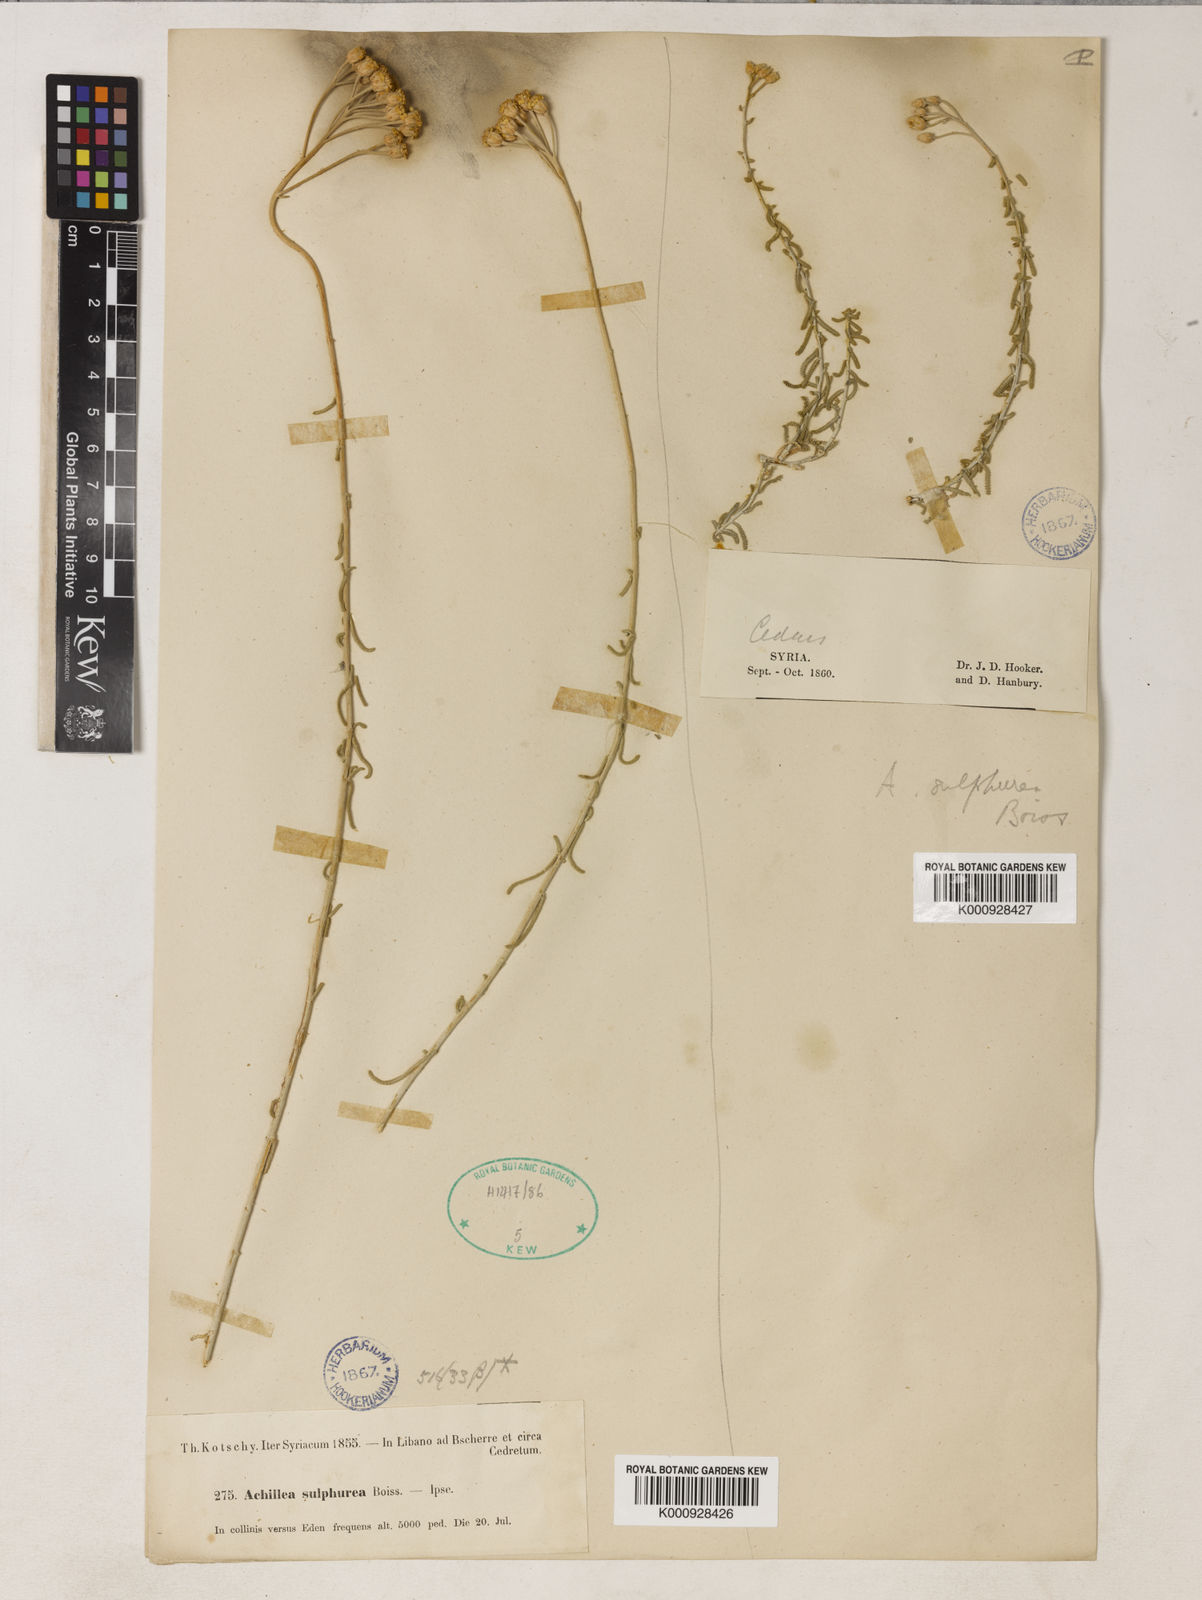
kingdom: Plantae
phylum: Tracheophyta
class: Magnoliopsida
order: Asterales
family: Asteraceae
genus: Achillea
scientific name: Achillea falcata
